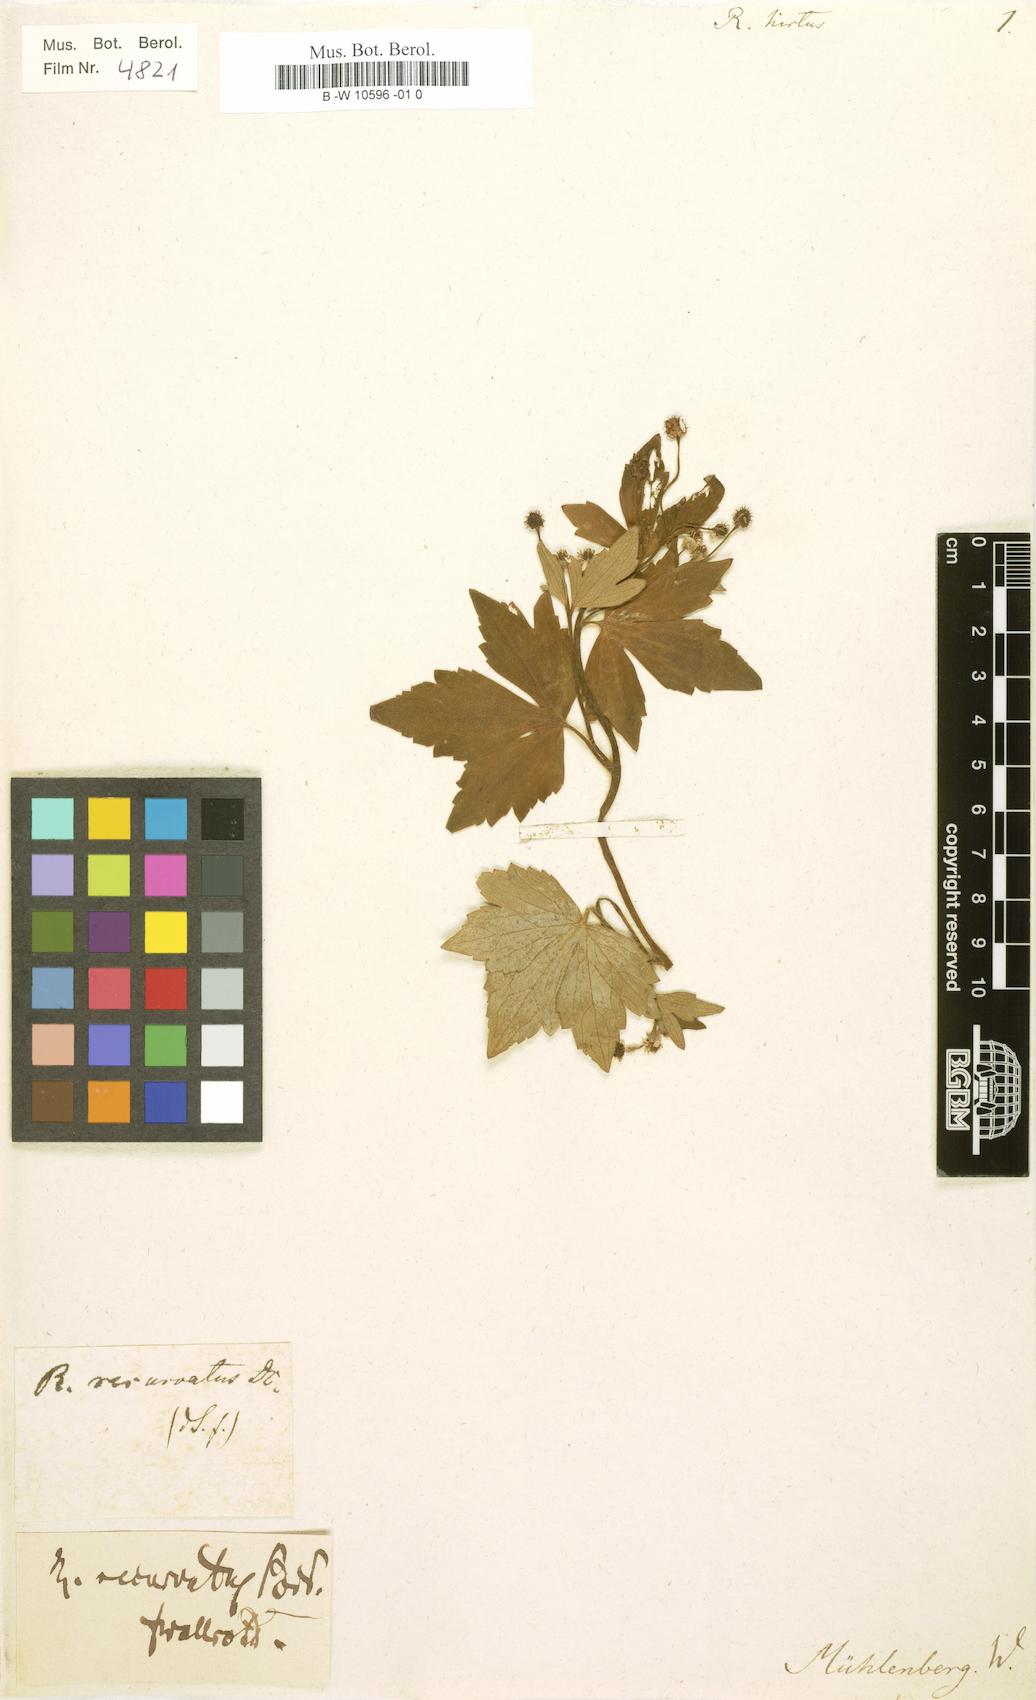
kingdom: Plantae
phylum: Tracheophyta
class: Magnoliopsida
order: Ranunculales
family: Ranunculaceae
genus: Ranunculus
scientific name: Ranunculus
